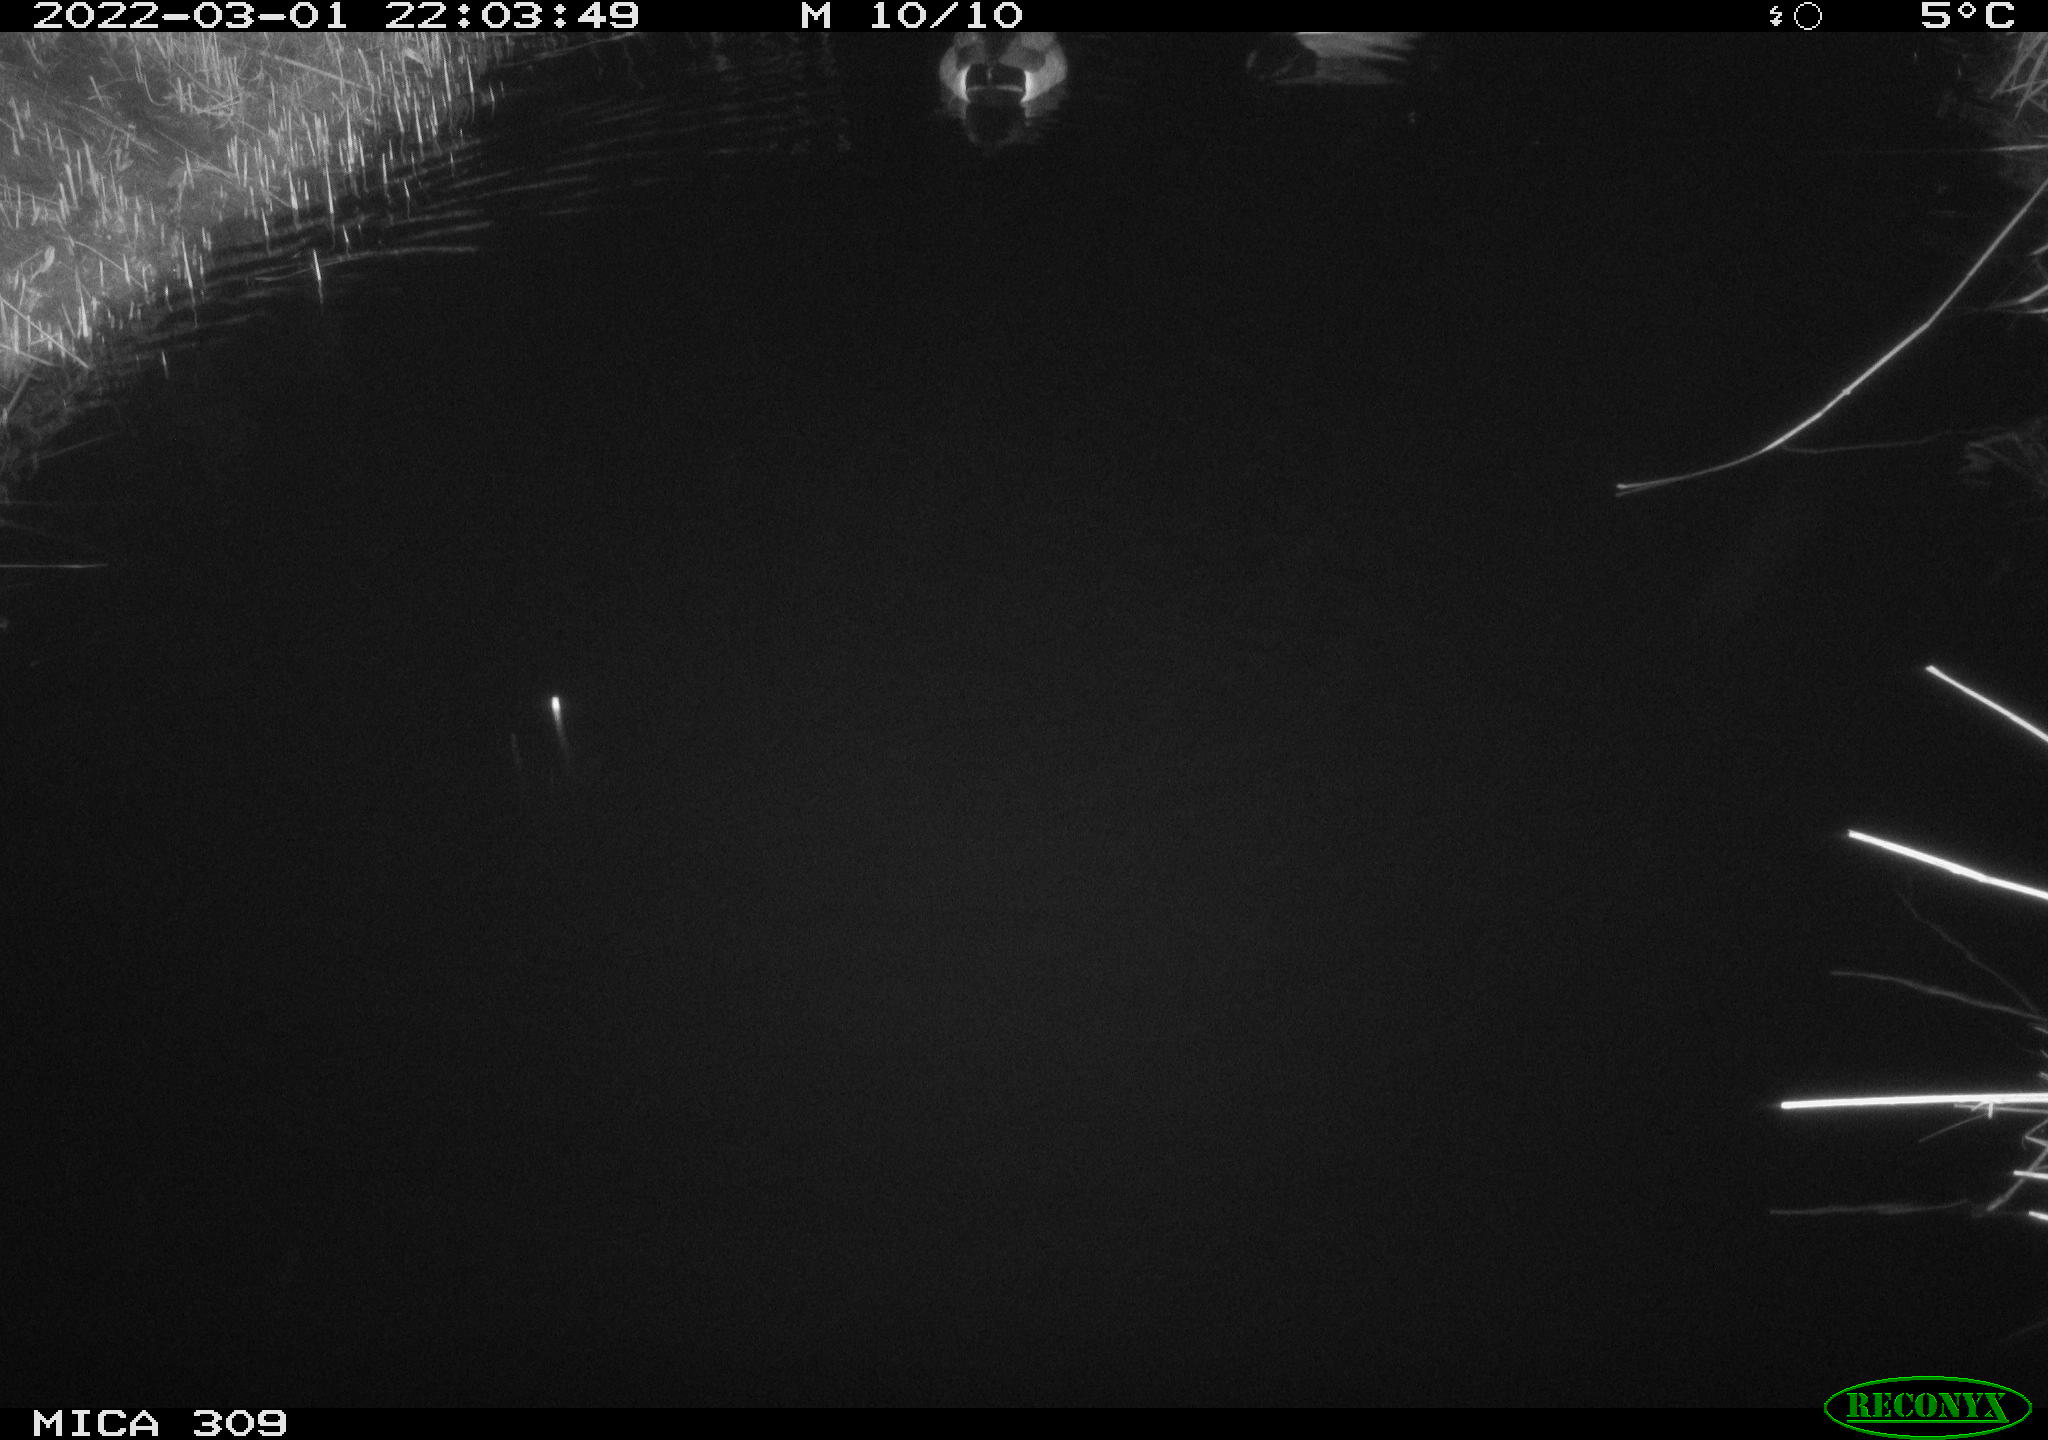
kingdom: Animalia
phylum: Chordata
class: Aves
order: Anseriformes
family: Anatidae
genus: Anas
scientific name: Anas platyrhynchos
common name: Mallard
